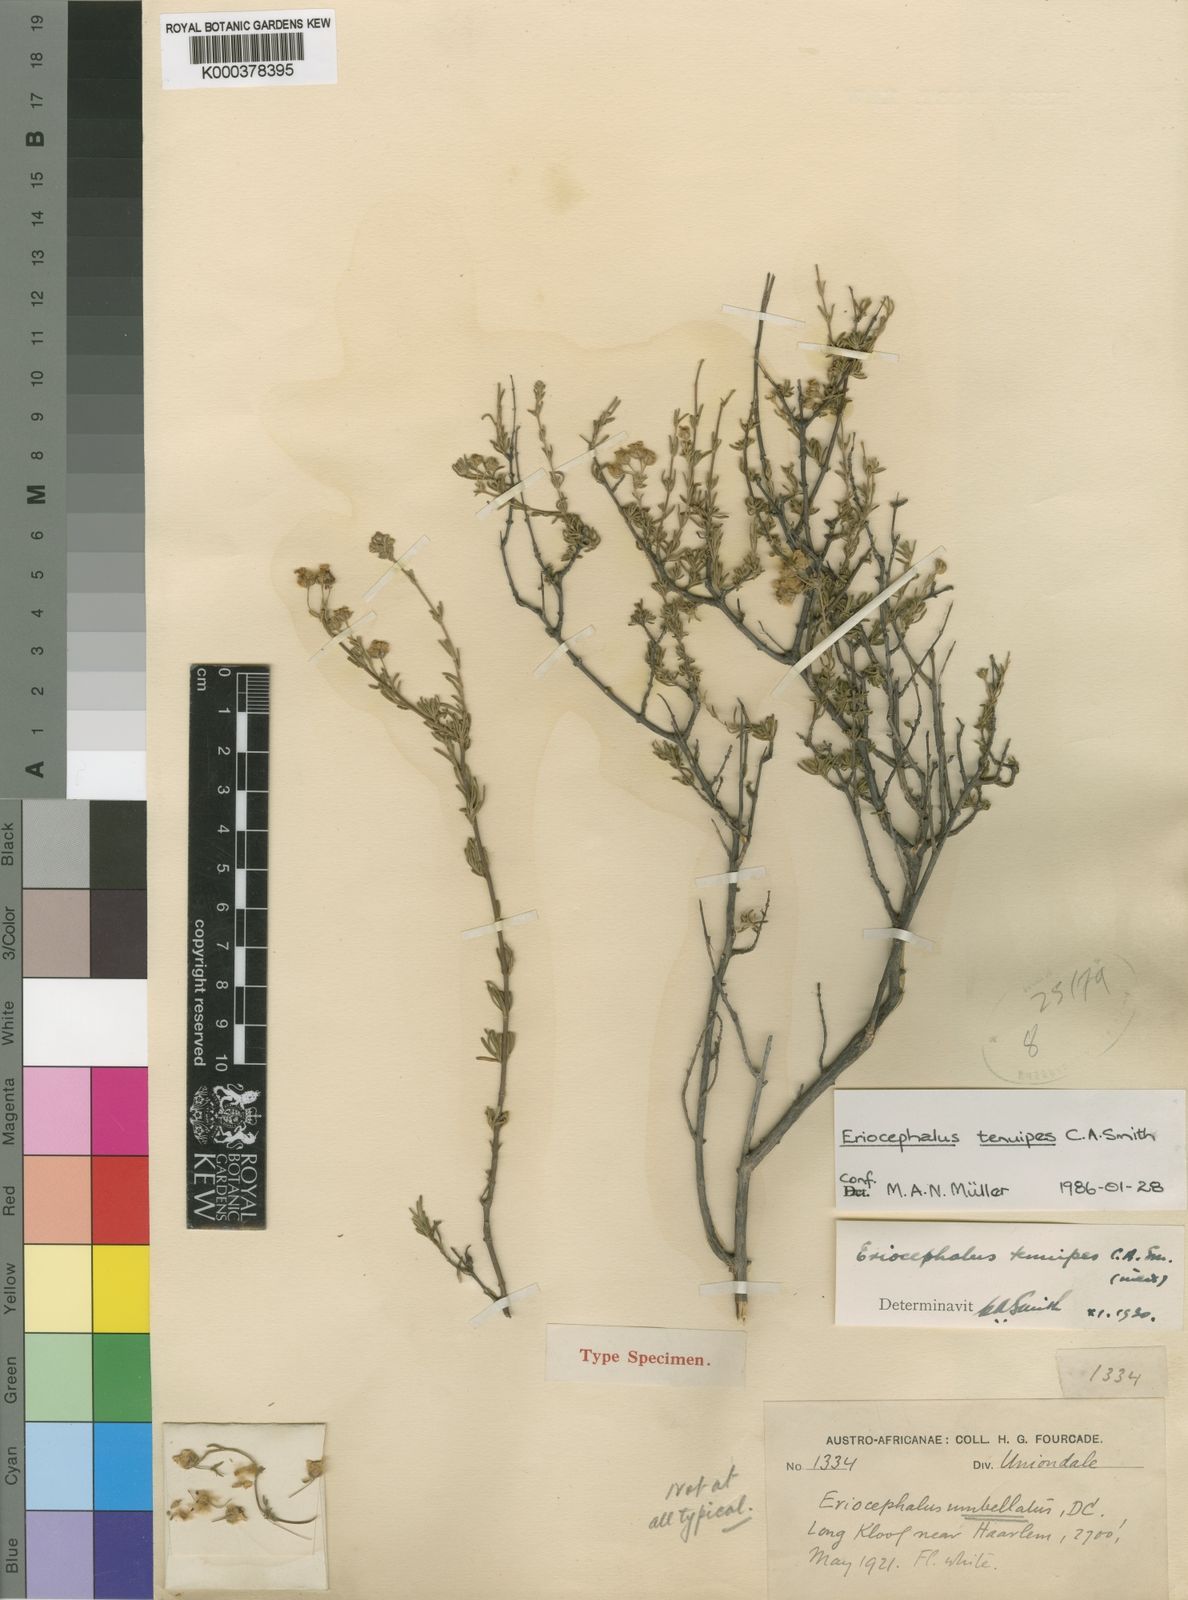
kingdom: Plantae
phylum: Tracheophyta
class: Magnoliopsida
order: Asterales
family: Asteraceae
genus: Eriocephalus
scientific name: Eriocephalus tenuipes
